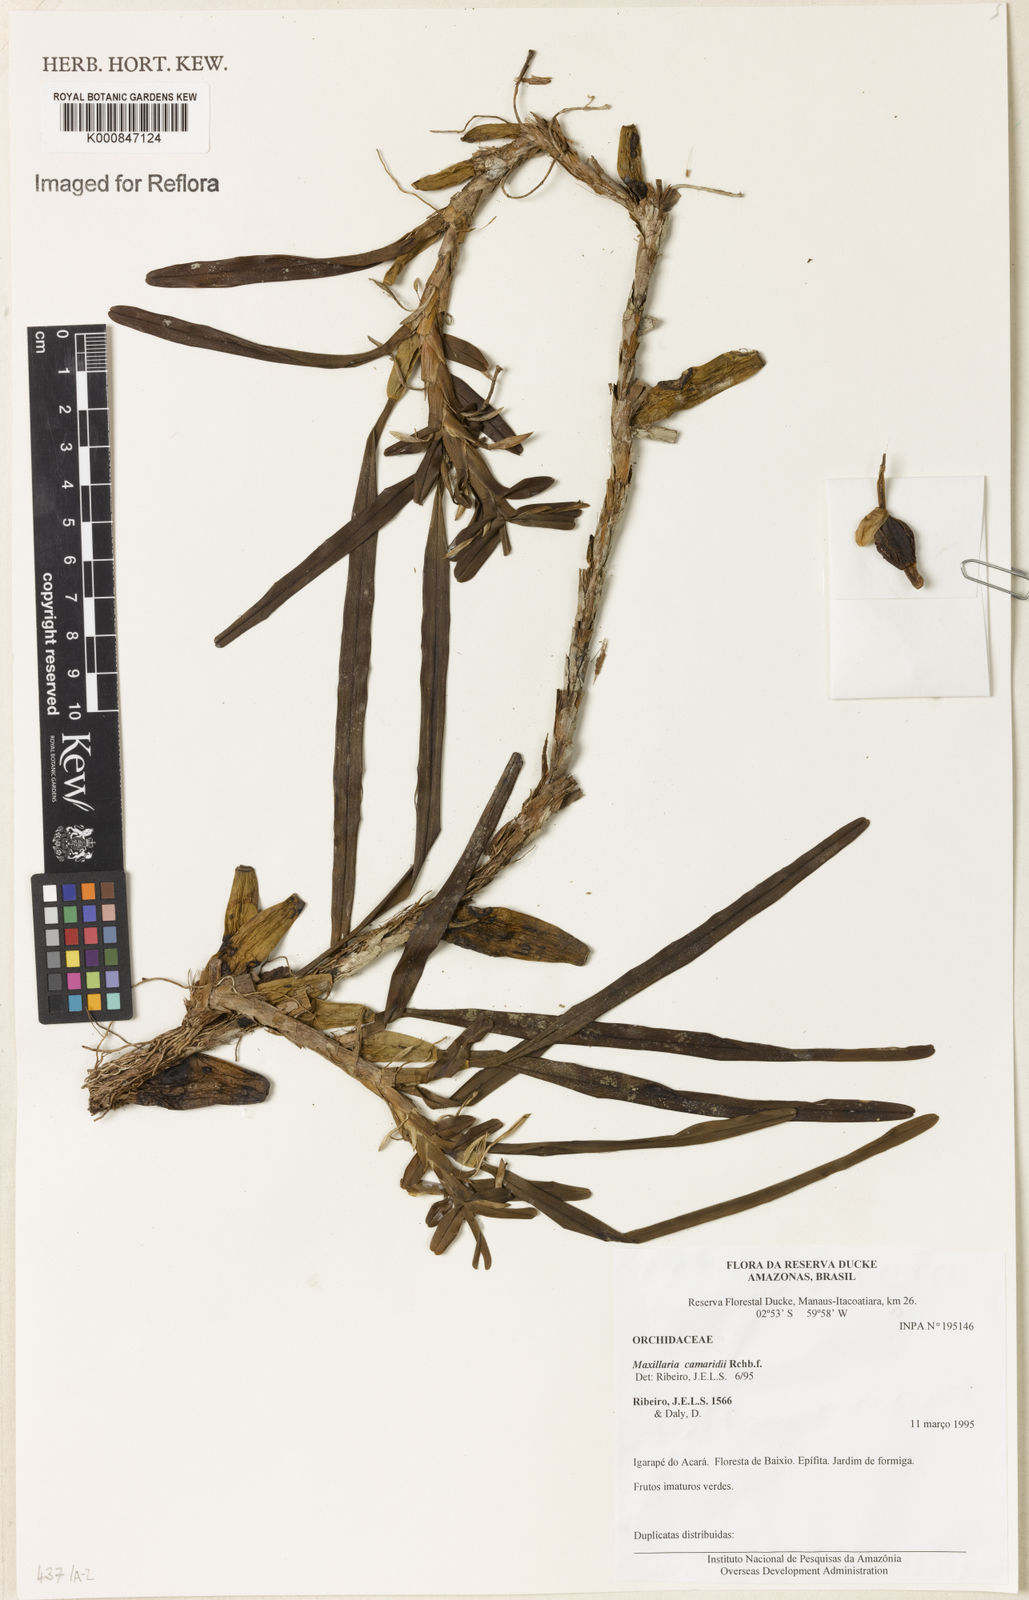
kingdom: Plantae
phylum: Tracheophyta
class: Liliopsida
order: Asparagales
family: Orchidaceae
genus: Maxillaria
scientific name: Maxillaria lutescens
